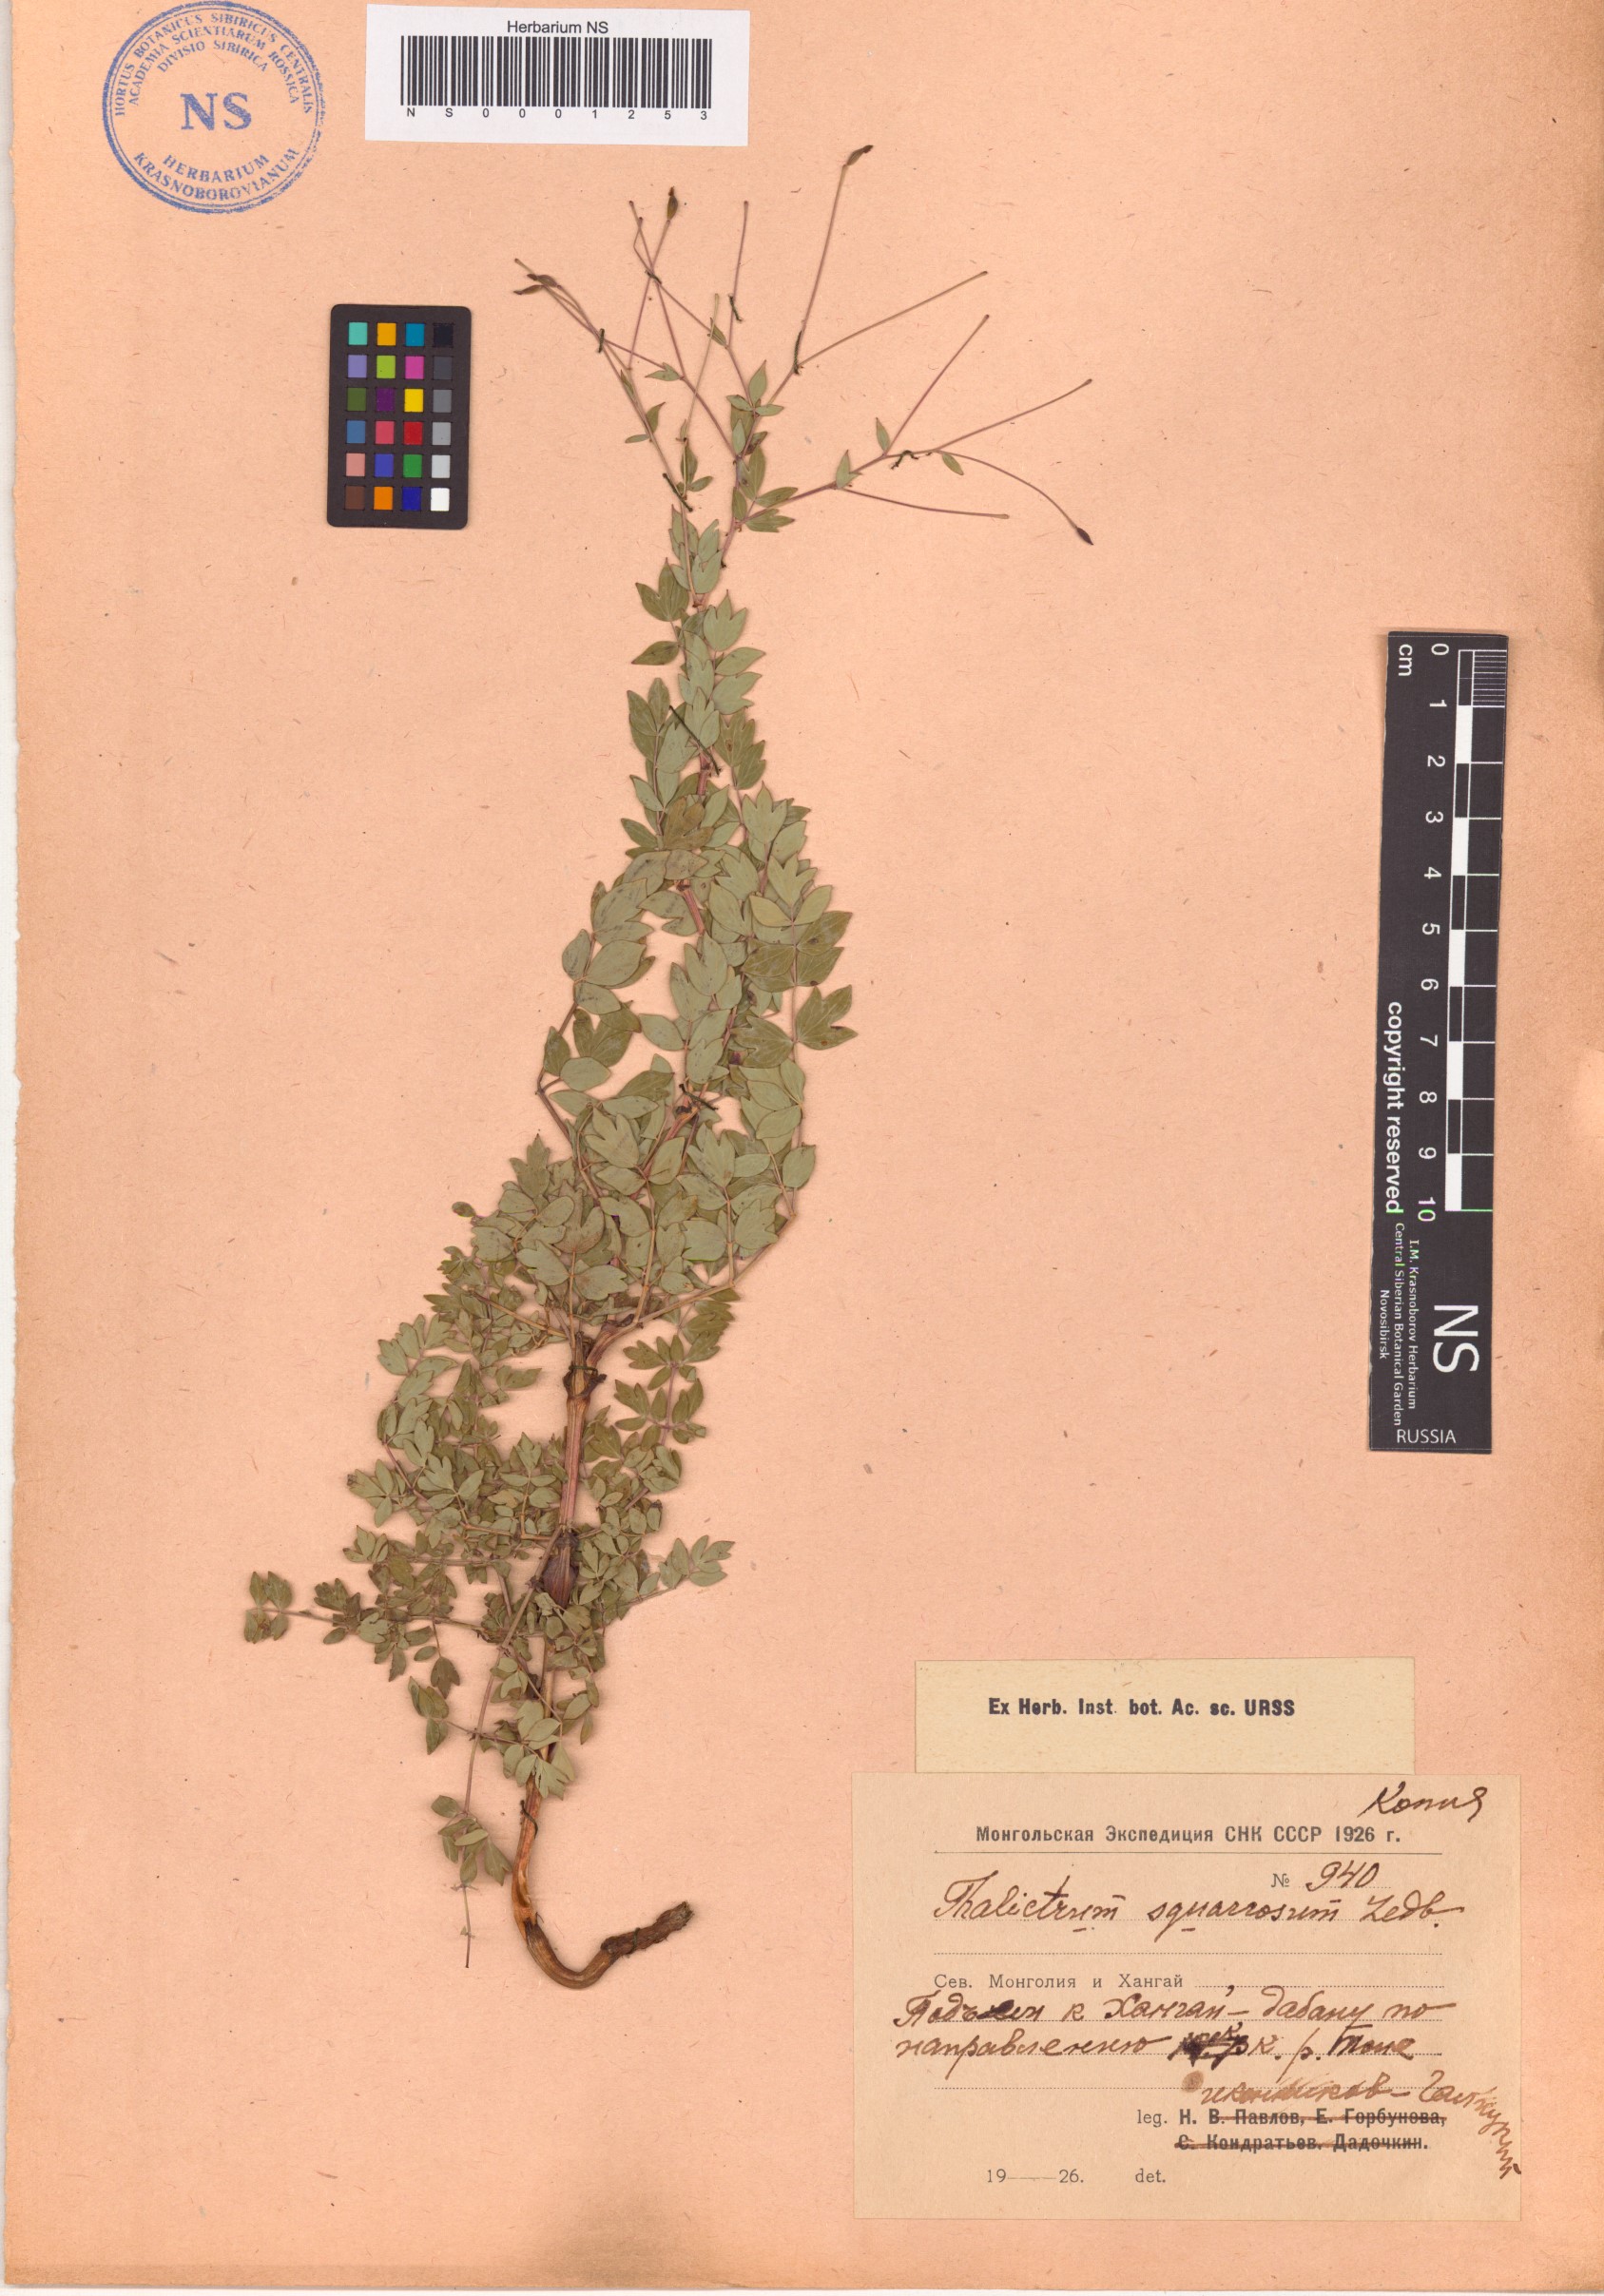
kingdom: Plantae
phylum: Tracheophyta
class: Magnoliopsida
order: Ranunculales
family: Ranunculaceae
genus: Thalictrum
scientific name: Thalictrum squarrosum
